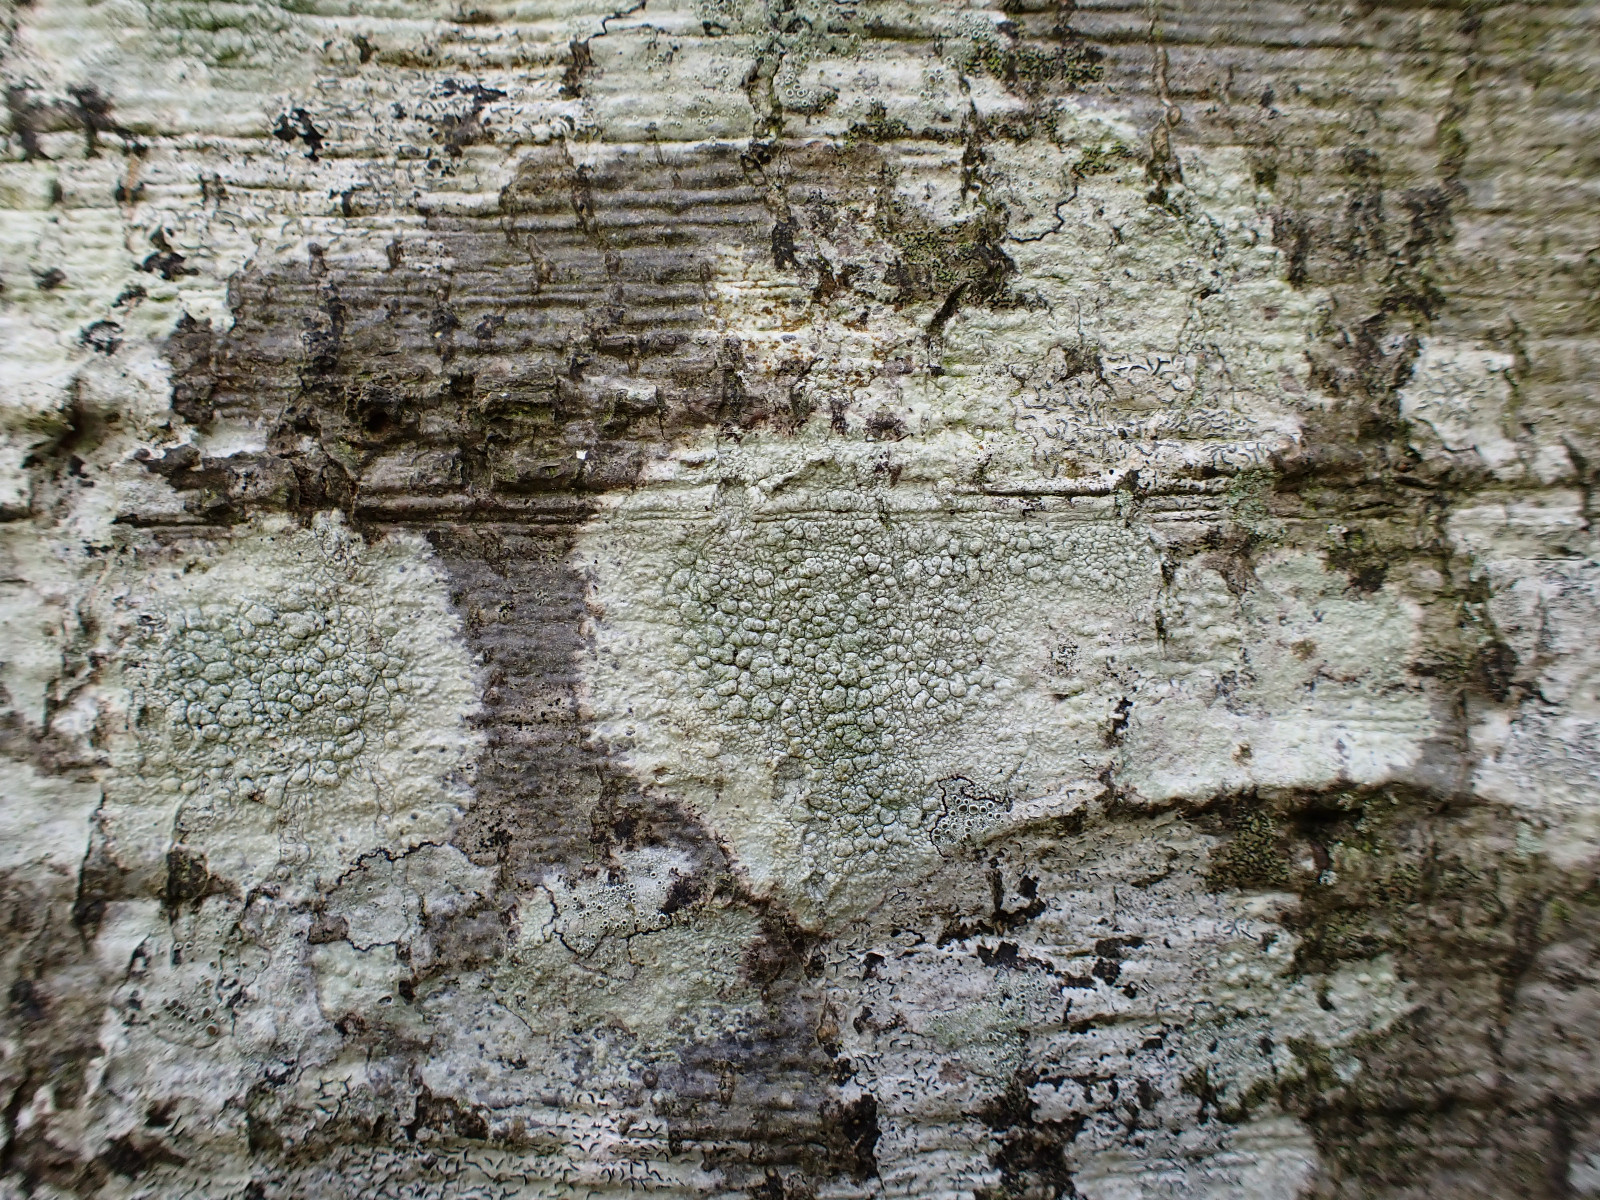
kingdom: Fungi
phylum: Ascomycota
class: Lecanoromycetes
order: Pertusariales
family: Pertusariaceae
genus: Pertusaria
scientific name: Pertusaria pertusa
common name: almindelig prikvortelav
